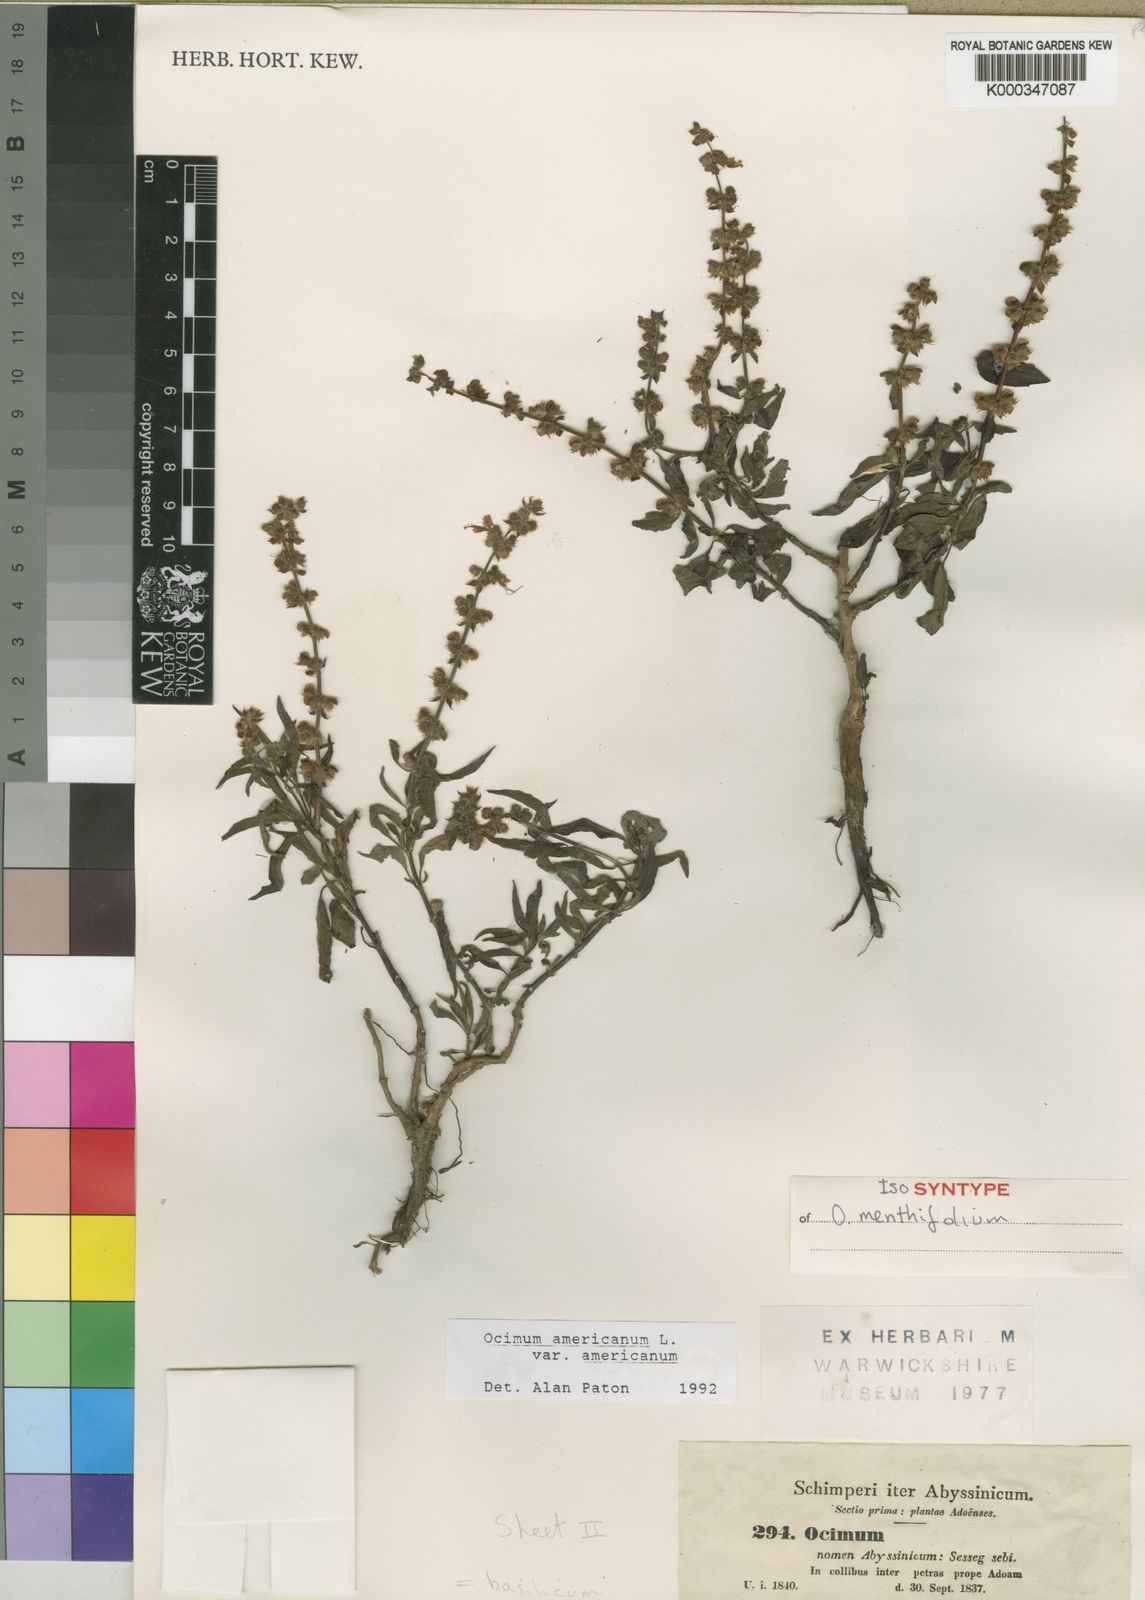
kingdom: Plantae
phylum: Tracheophyta
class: Magnoliopsida
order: Lamiales
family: Lamiaceae
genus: Ocimum
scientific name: Ocimum americanum
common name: American basil
